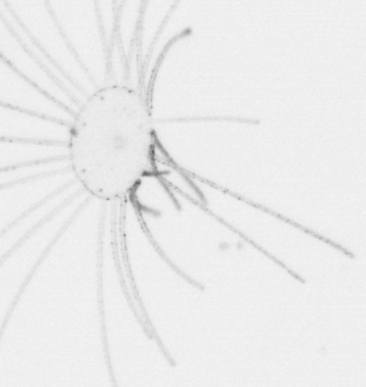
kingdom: Animalia
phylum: Cnidaria
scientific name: Cnidaria
